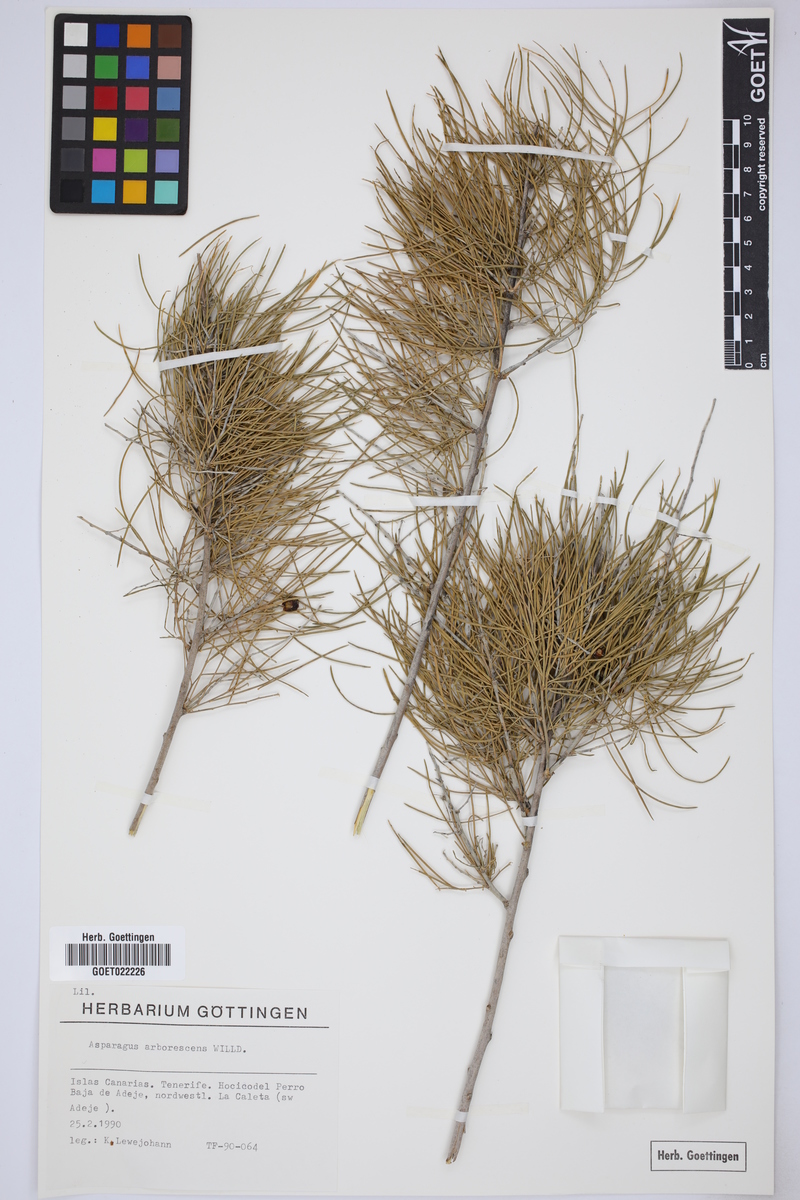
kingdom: Plantae
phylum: Tracheophyta
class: Liliopsida
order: Asparagales
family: Asparagaceae
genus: Asparagus
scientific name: Asparagus arborescens
